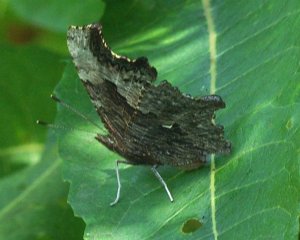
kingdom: Animalia
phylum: Arthropoda
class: Insecta
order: Lepidoptera
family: Nymphalidae
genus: Polygonia
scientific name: Polygonia progne
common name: Gray Comma
